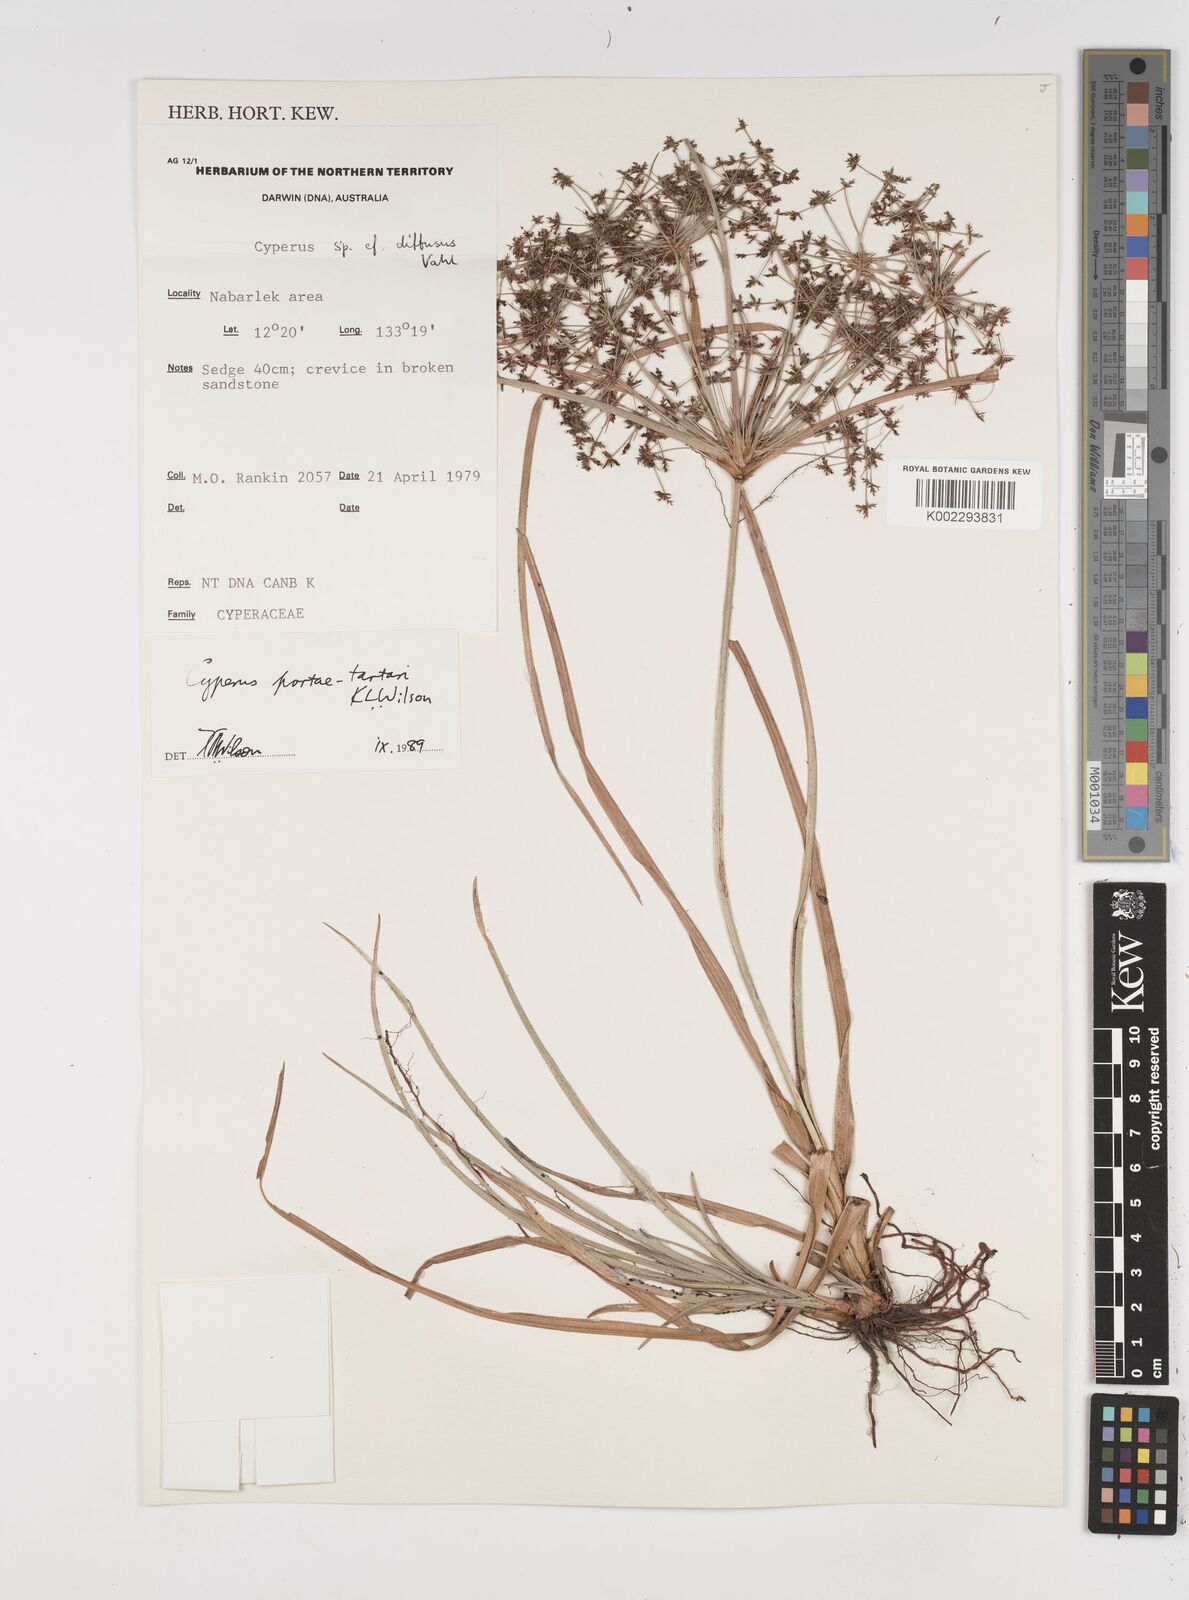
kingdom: Plantae
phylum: Tracheophyta
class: Liliopsida
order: Poales
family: Cyperaceae
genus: Cyperus
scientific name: Cyperus portae-tartari
